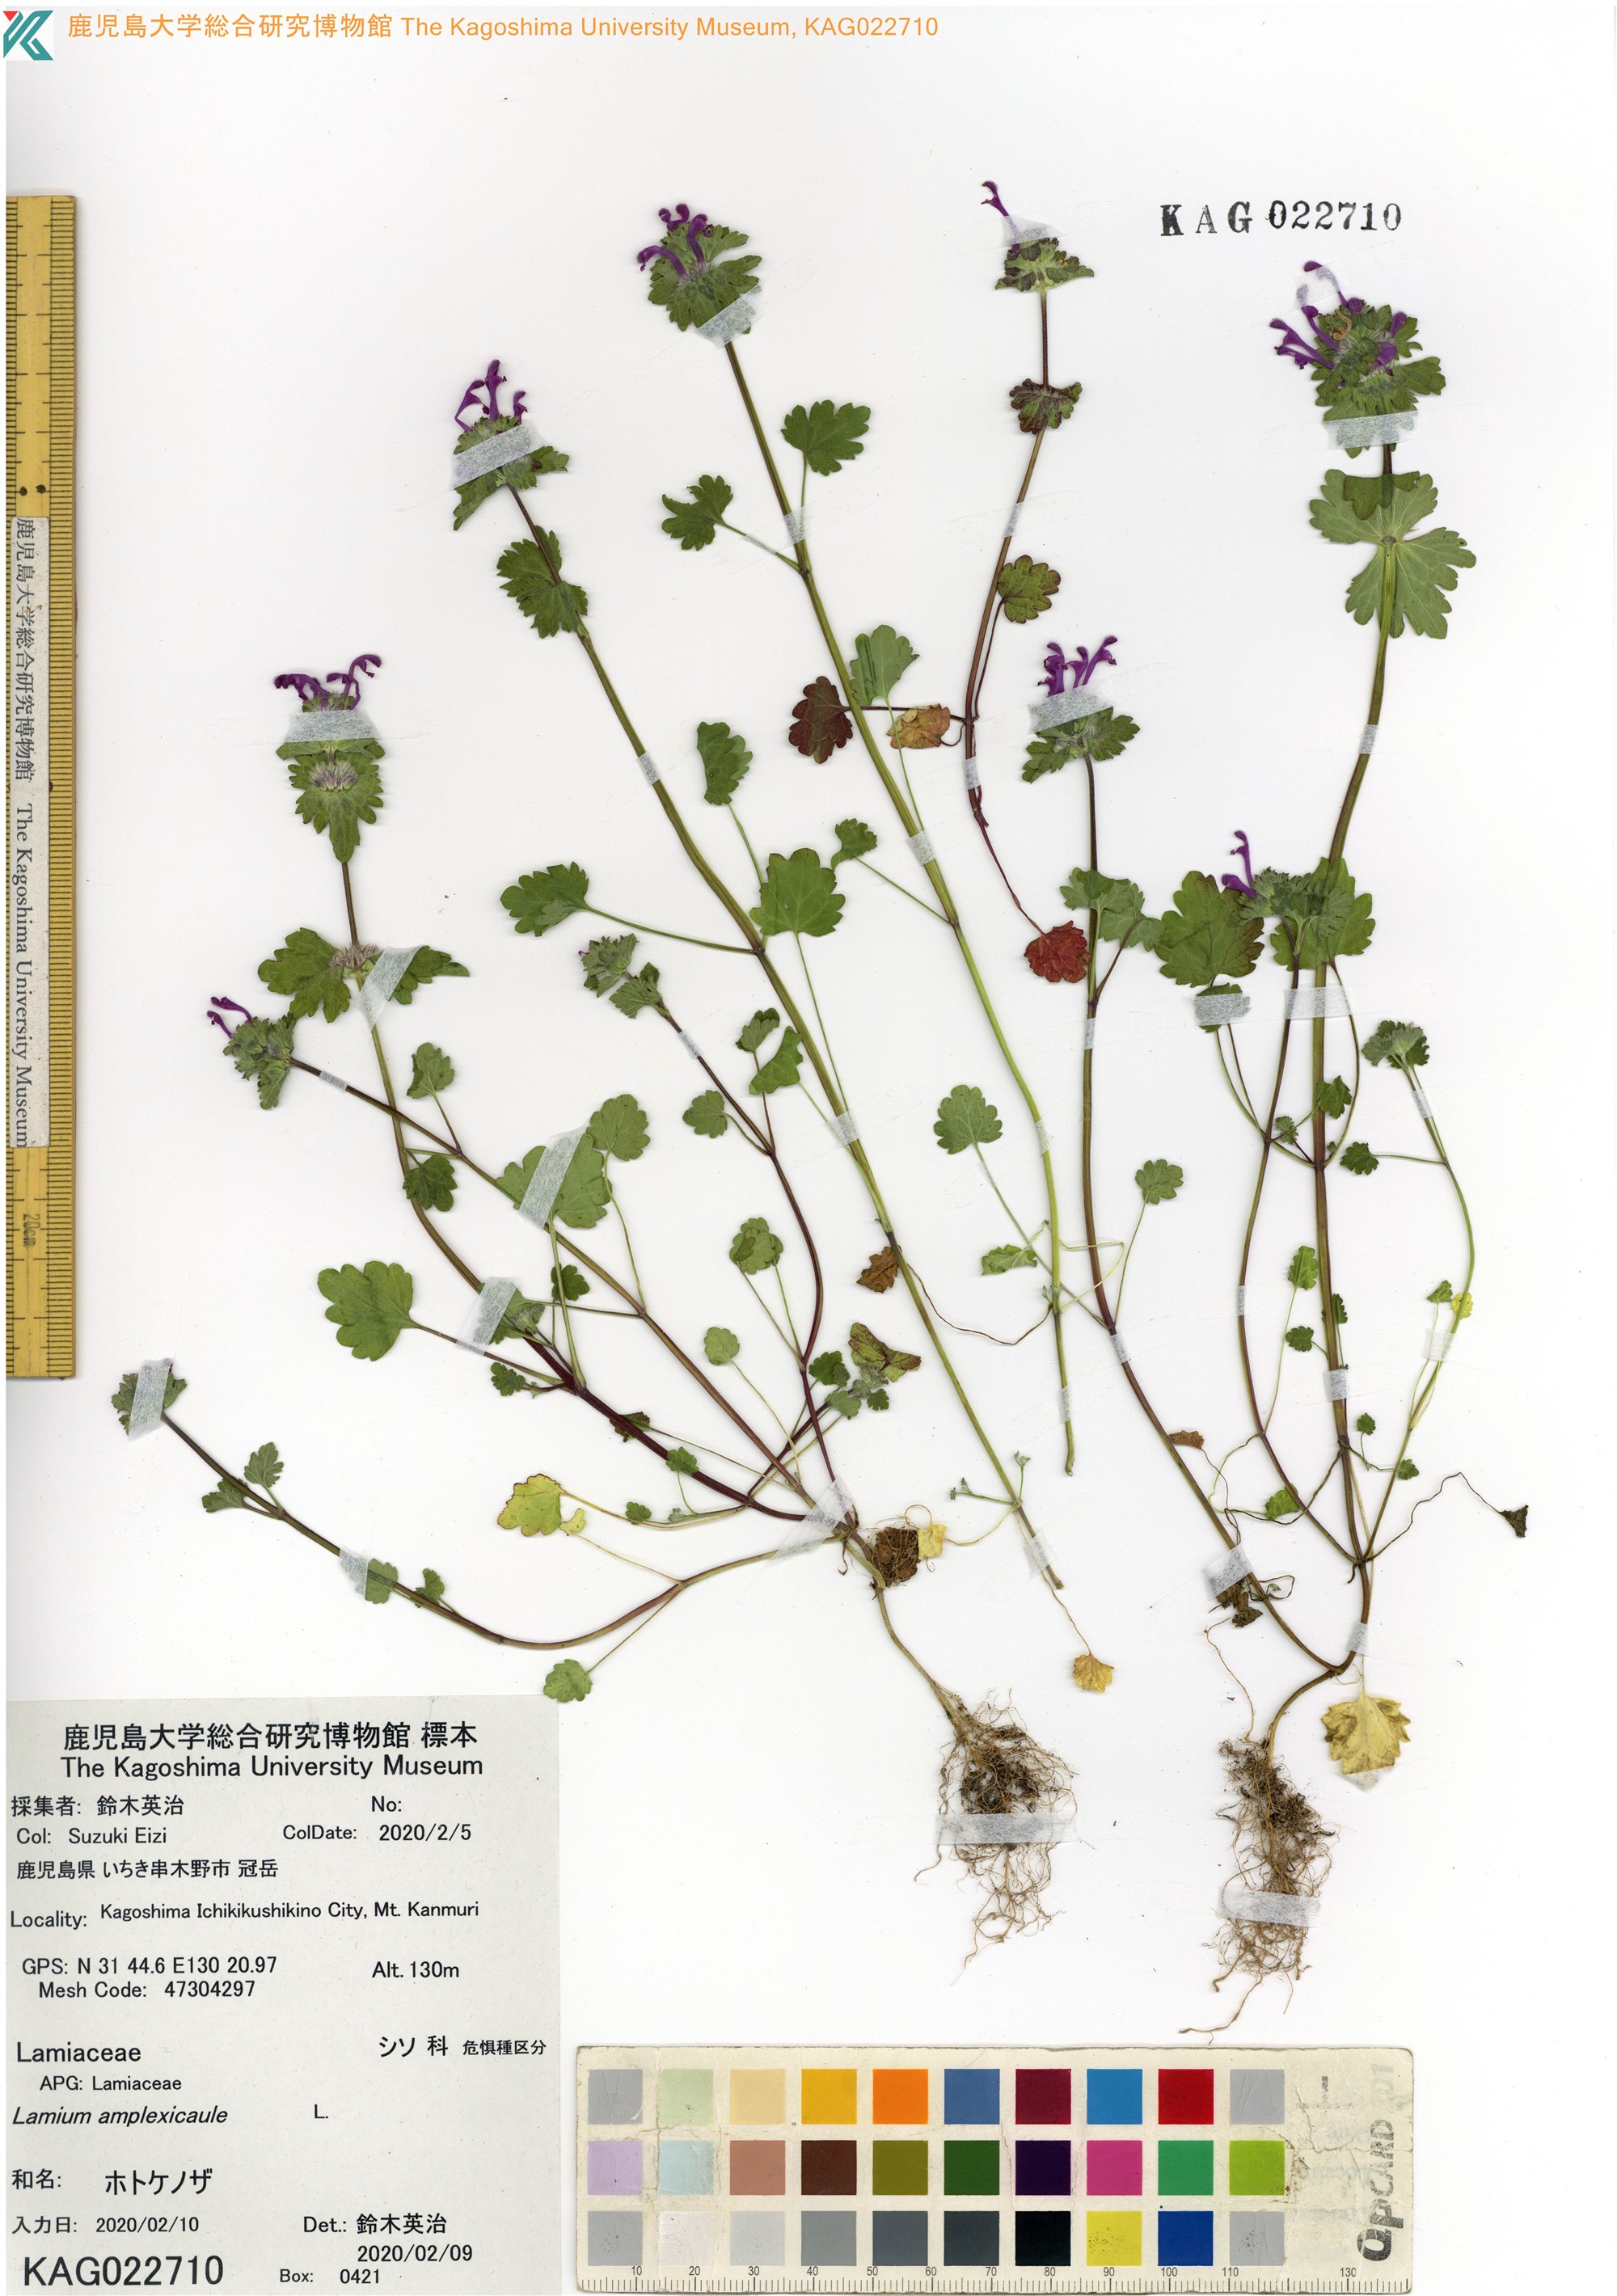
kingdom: Plantae
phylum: Tracheophyta
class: Magnoliopsida
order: Lamiales
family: Lamiaceae
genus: Lamium
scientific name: Lamium amplexicaule
